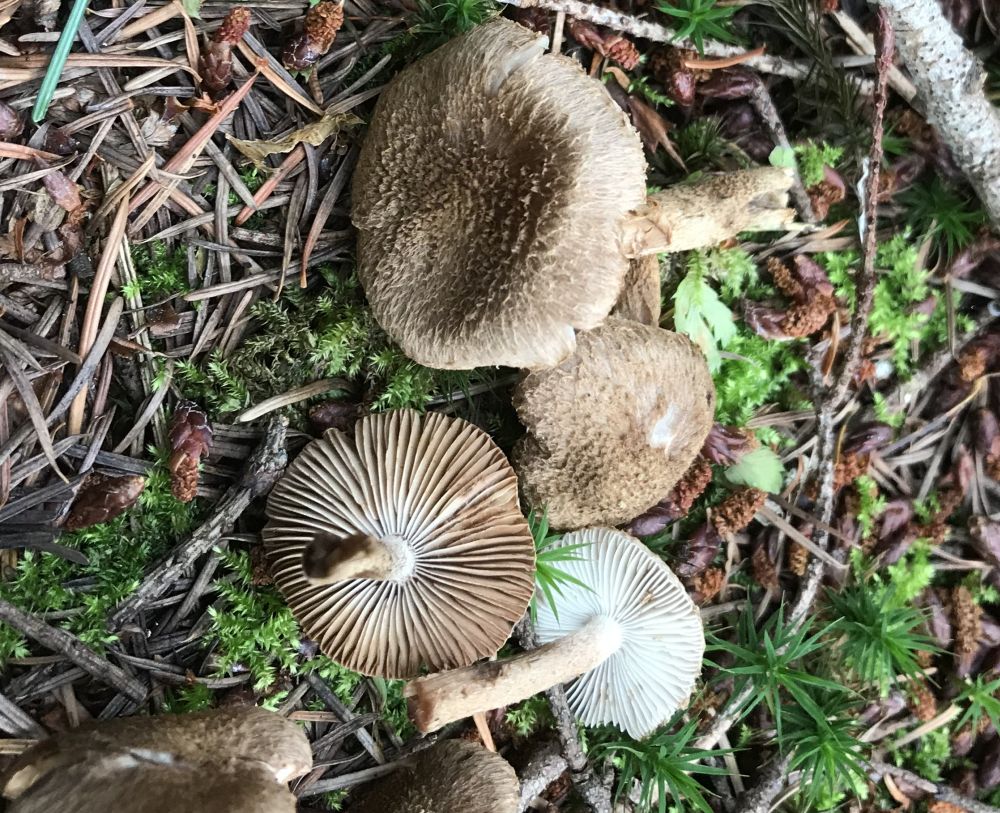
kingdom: Fungi
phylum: Basidiomycota
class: Agaricomycetes
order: Agaricales
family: Inocybaceae
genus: Inocybe
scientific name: Inocybe
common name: trævlhat
